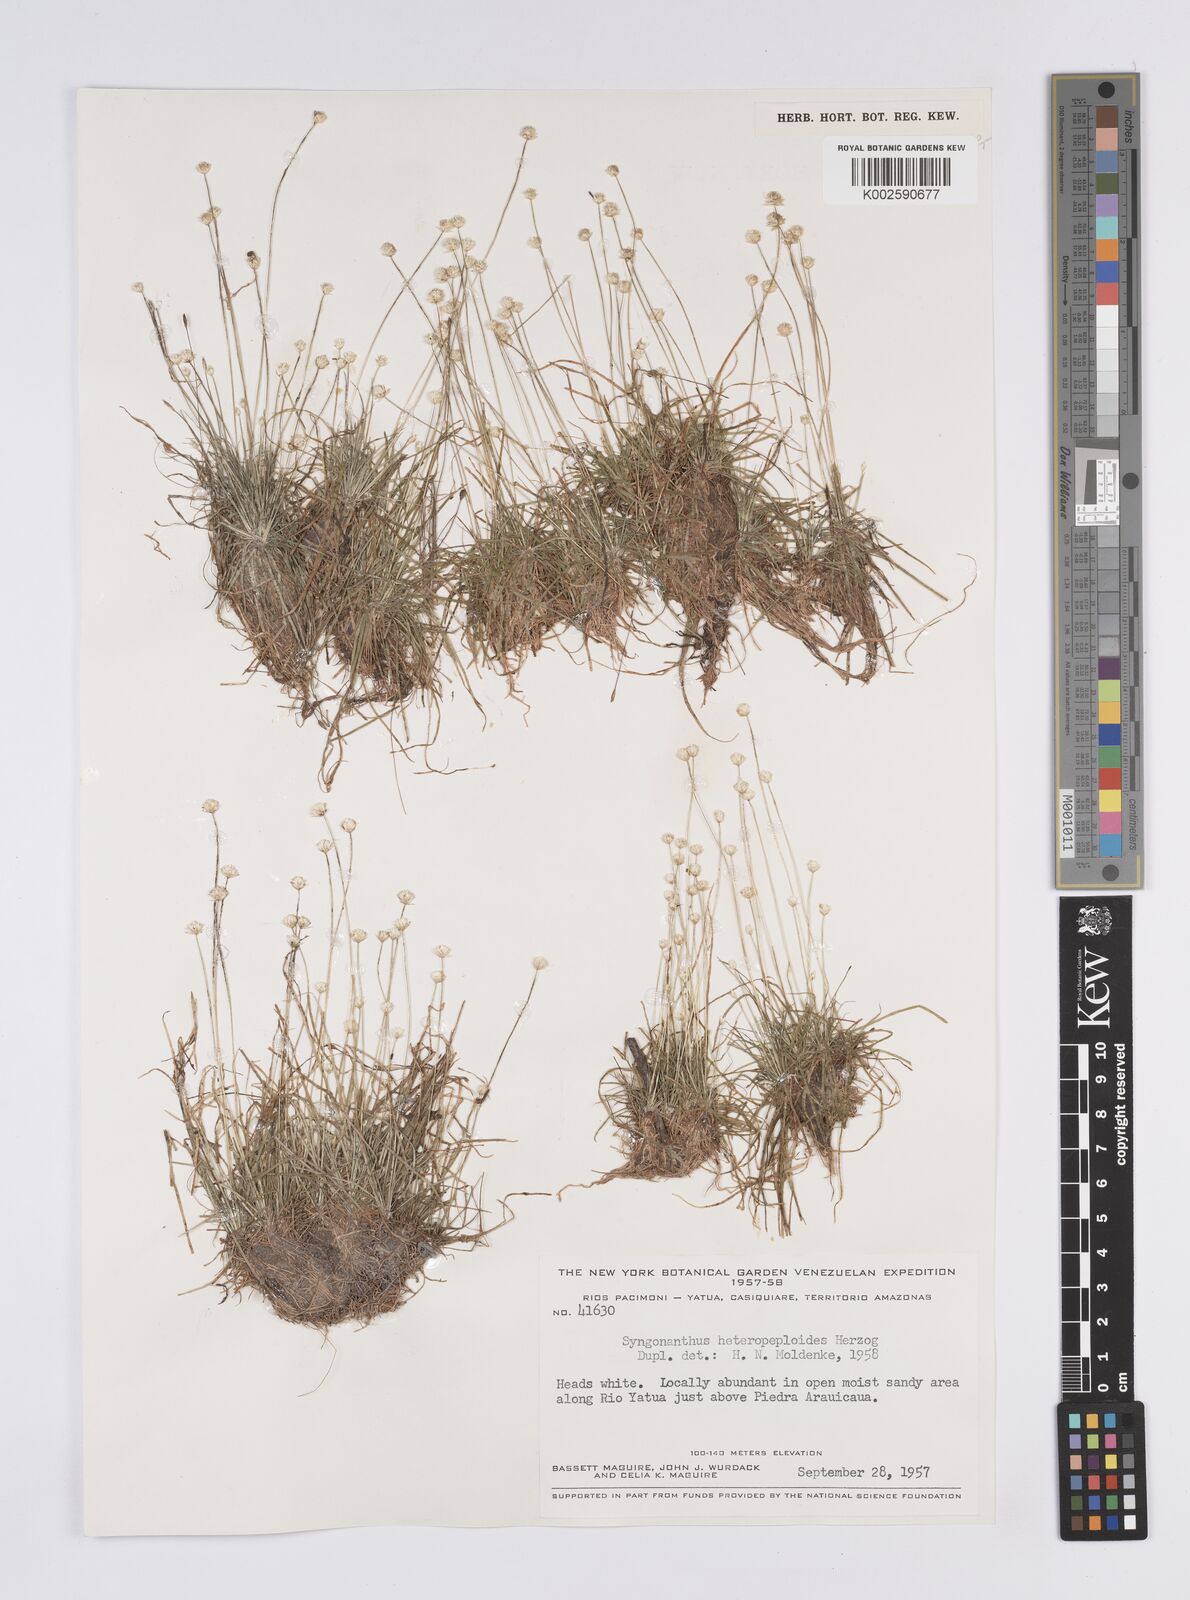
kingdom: Plantae
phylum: Tracheophyta
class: Liliopsida
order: Poales
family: Eriocaulaceae
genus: Syngonanthus
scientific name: Syngonanthus heteropeploides
